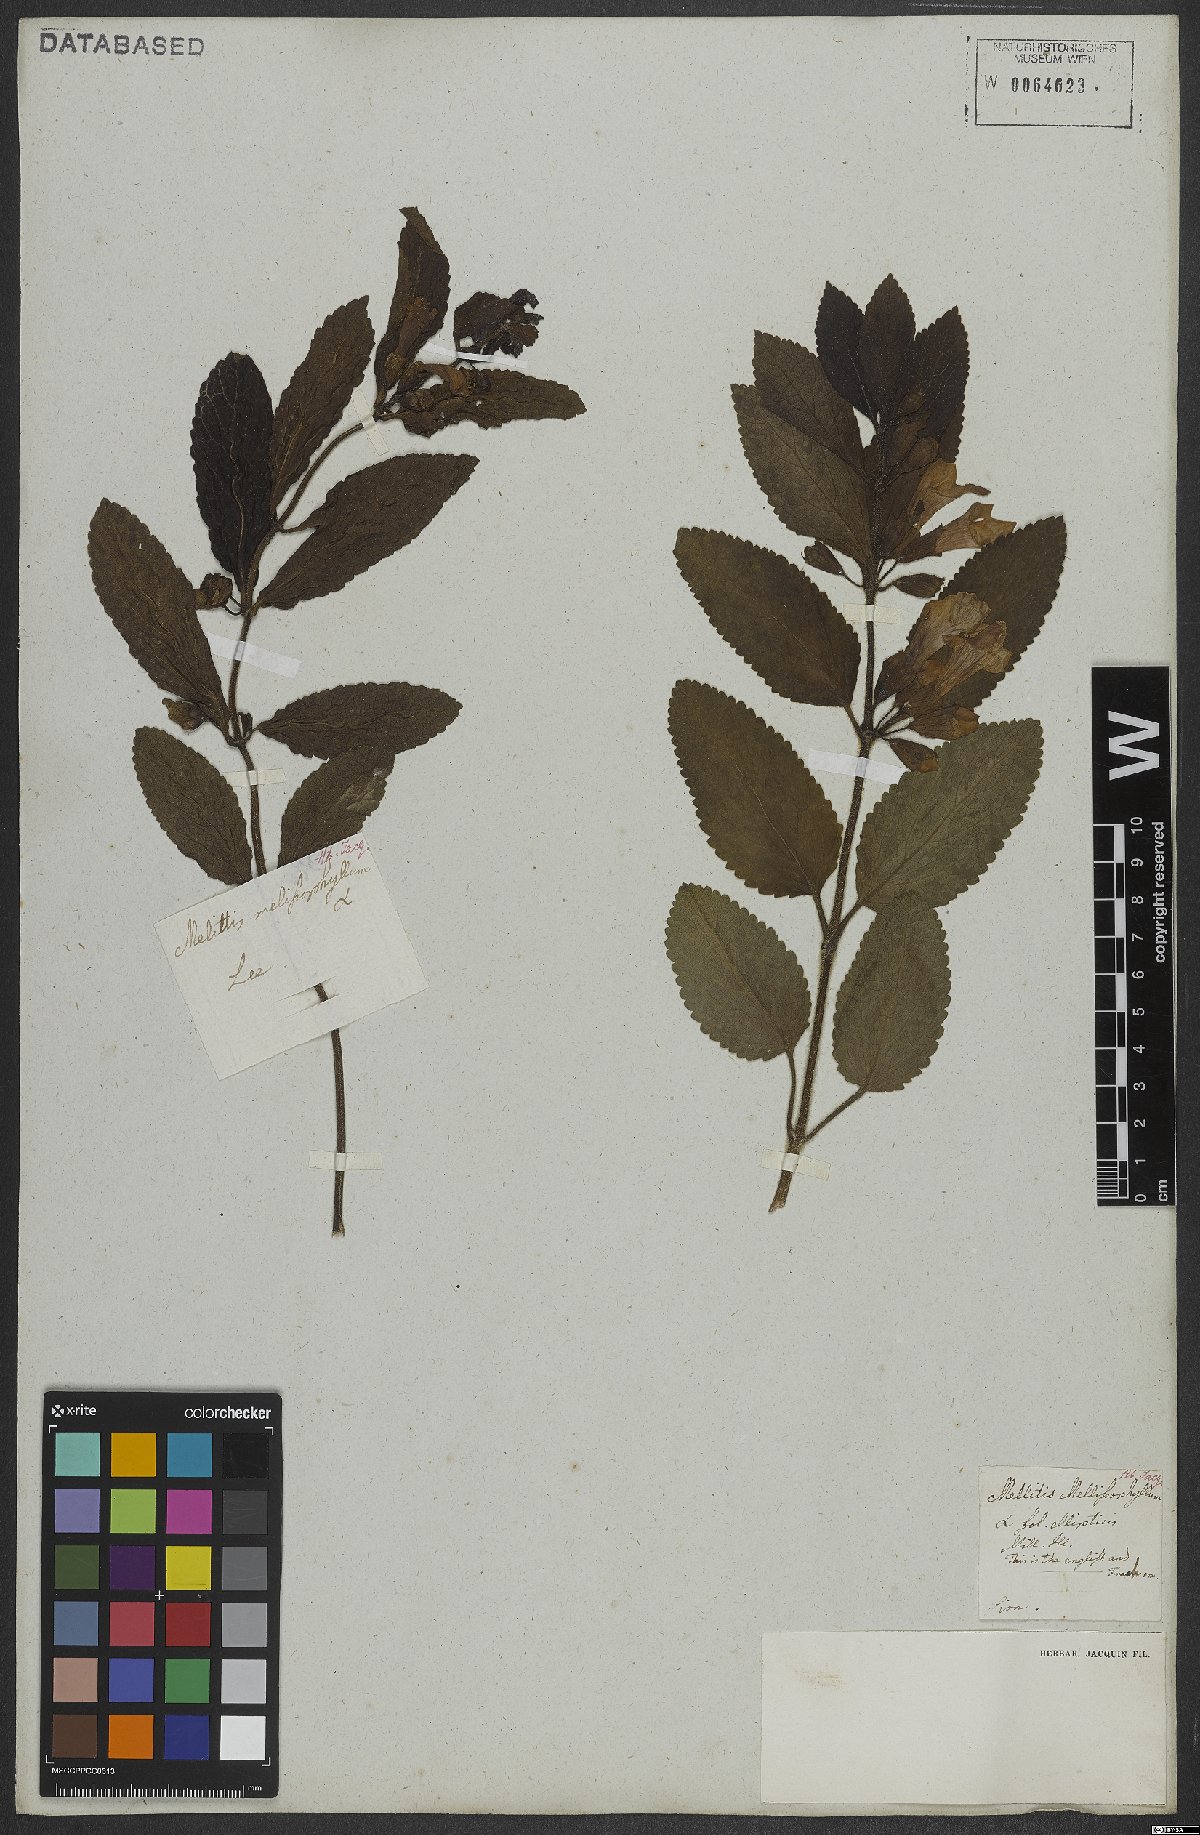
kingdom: Plantae
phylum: Tracheophyta
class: Magnoliopsida
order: Lamiales
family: Lamiaceae
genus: Melittis
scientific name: Melittis melissophyllum
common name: Bastard balm
